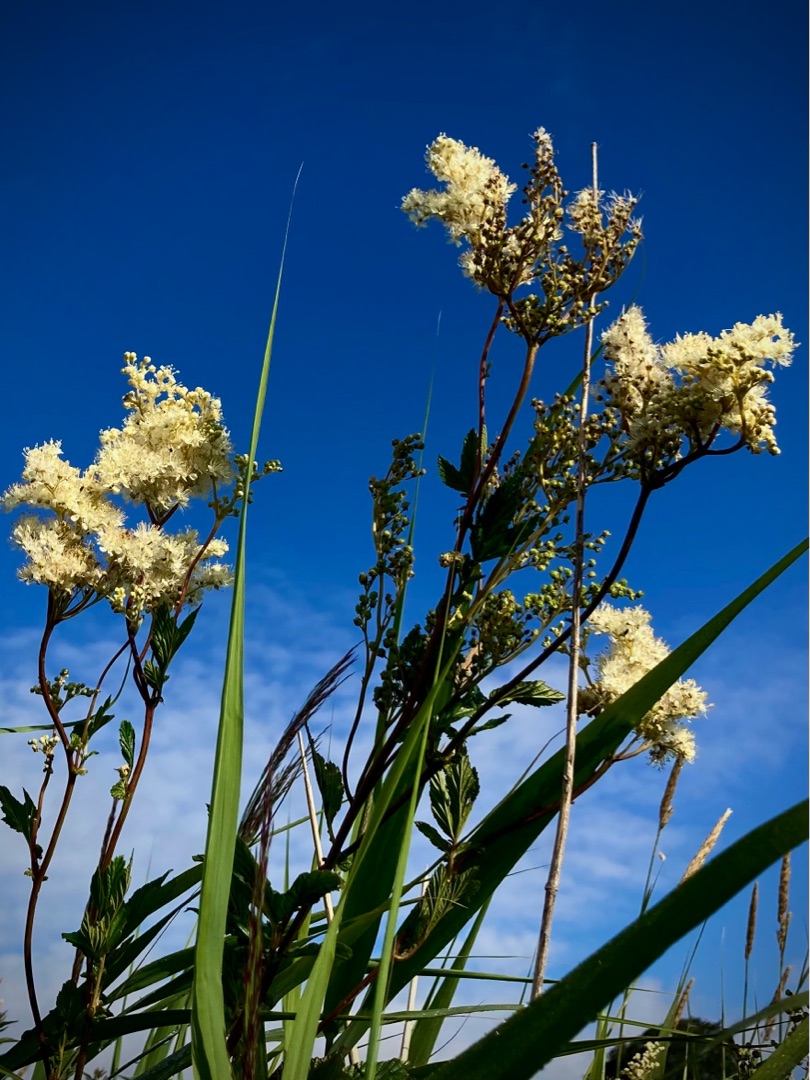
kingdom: Plantae
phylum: Tracheophyta
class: Magnoliopsida
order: Rosales
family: Rosaceae
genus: Filipendula
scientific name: Filipendula ulmaria
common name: Almindelig mjødurt
